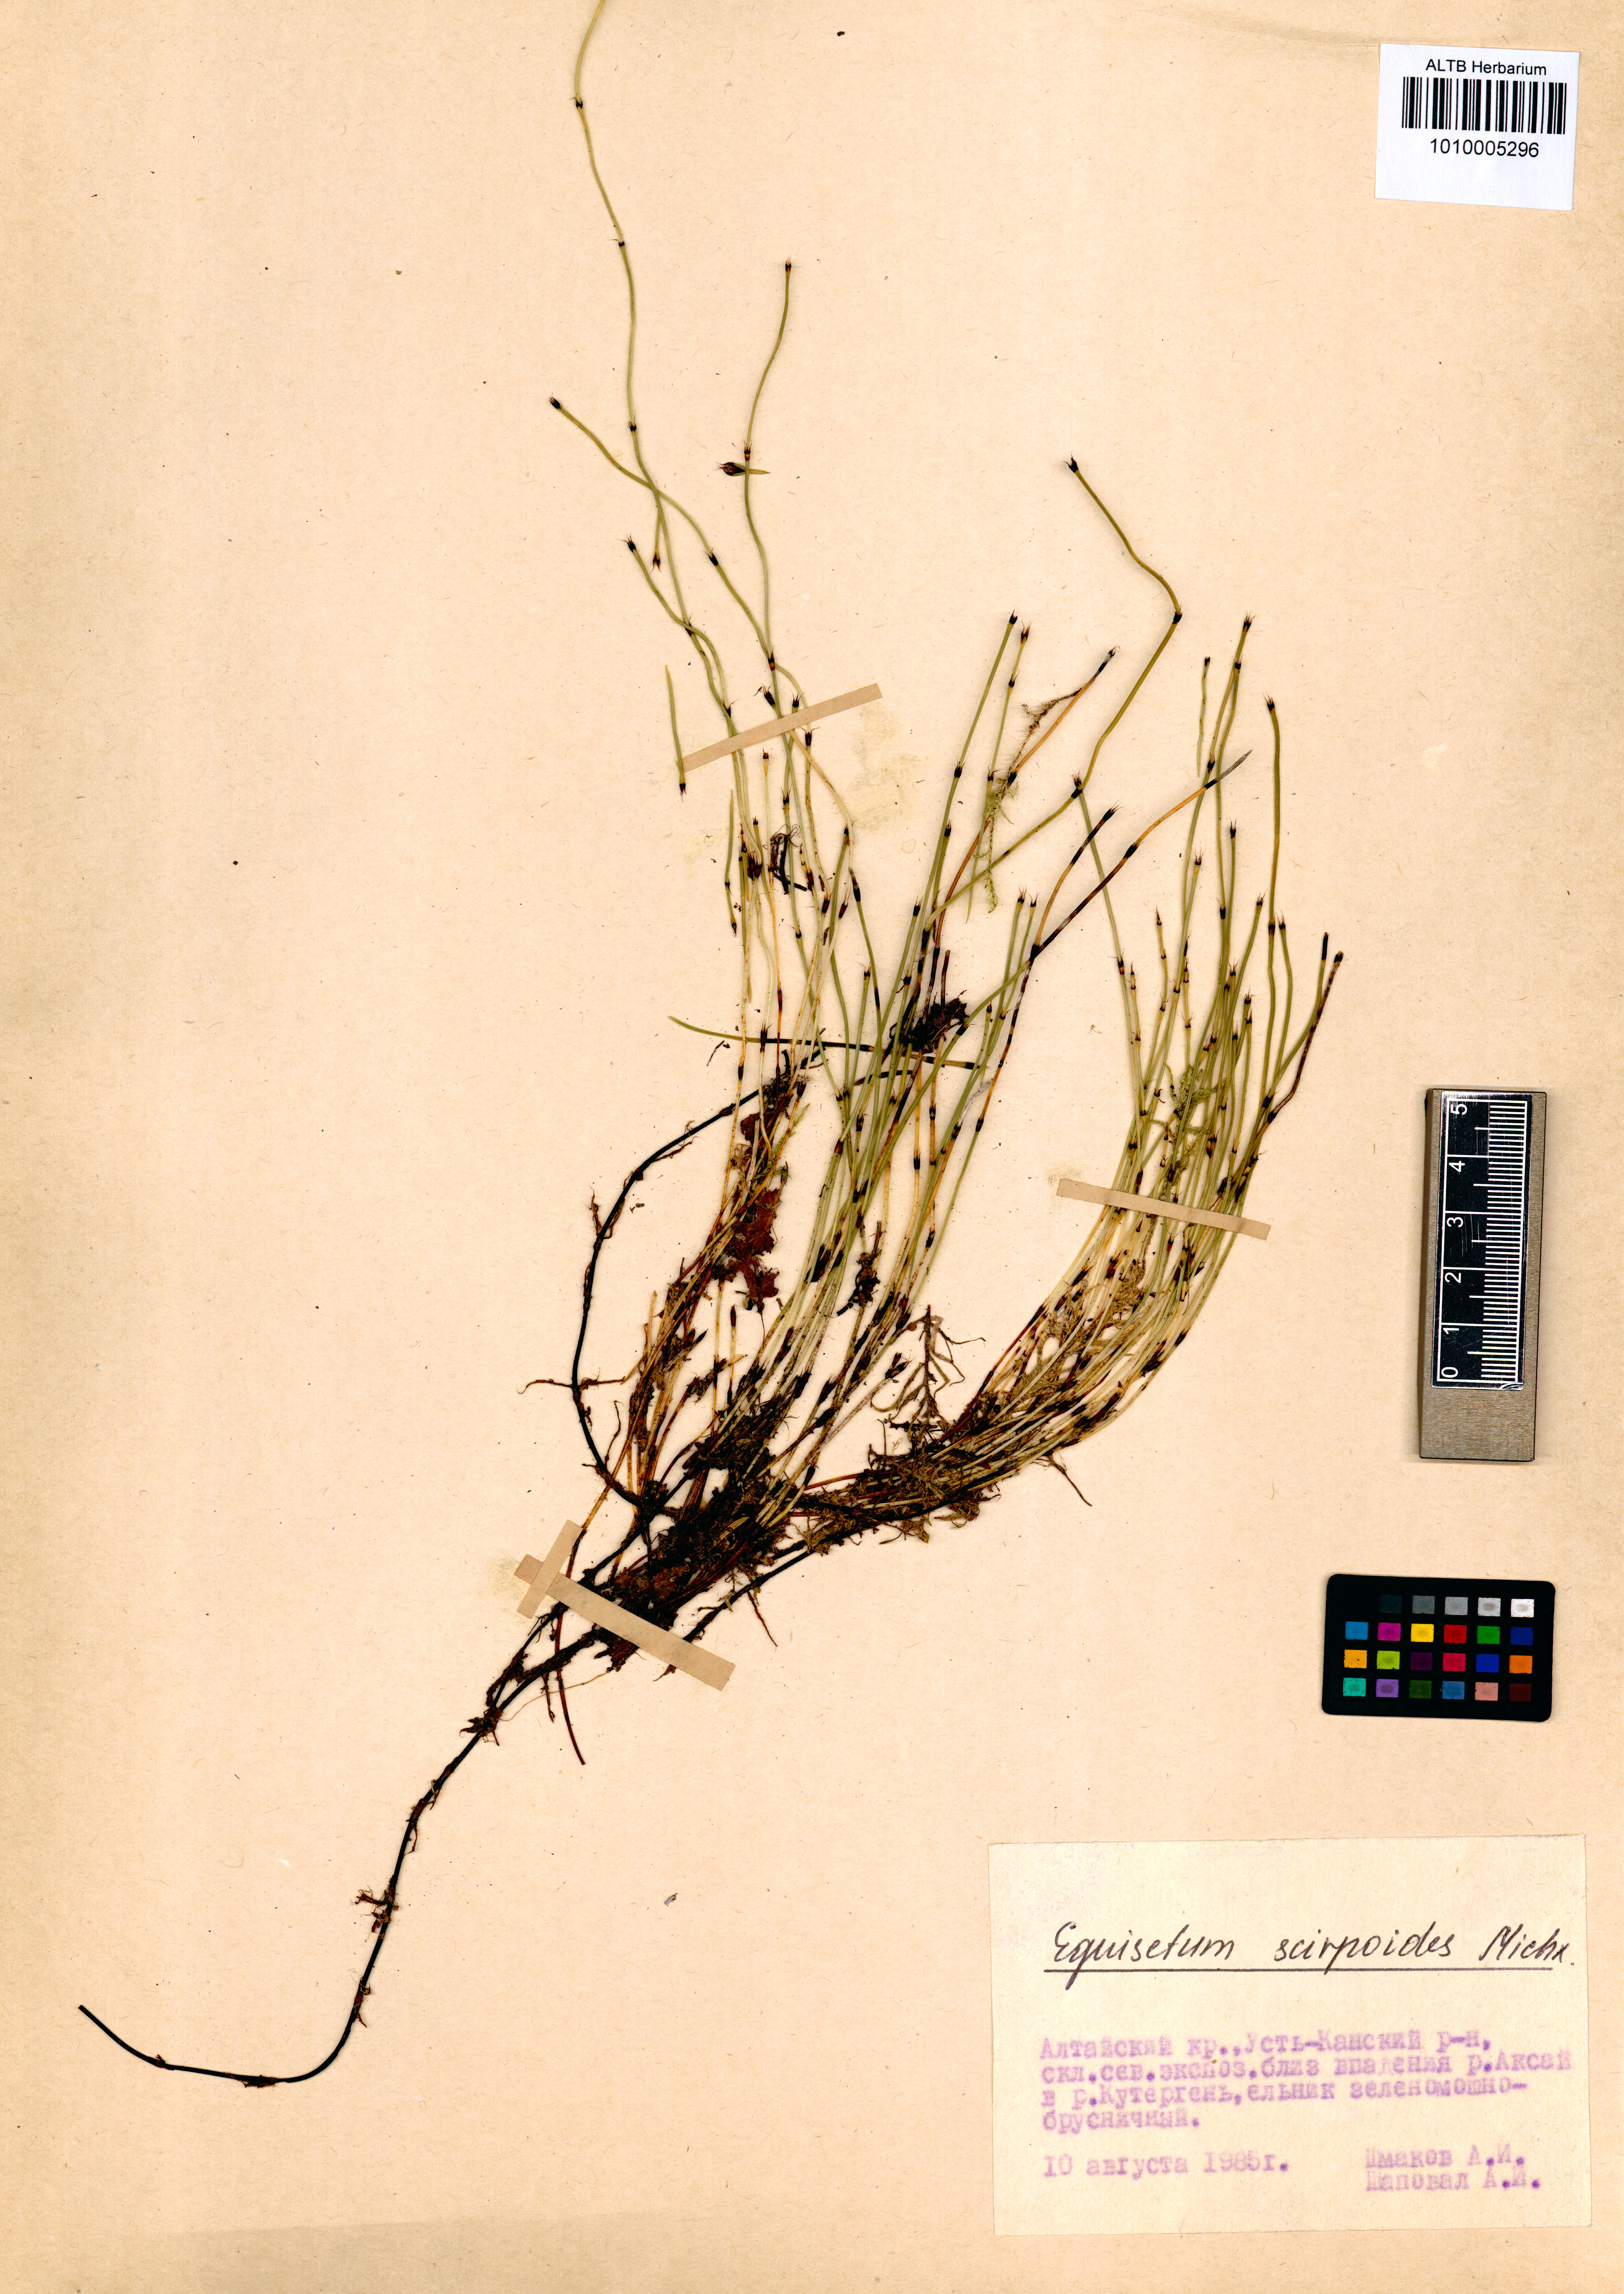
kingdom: Plantae
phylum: Tracheophyta
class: Polypodiopsida
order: Equisetales
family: Equisetaceae
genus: Equisetum
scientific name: Equisetum scirpoides
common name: Delicate horsetail
